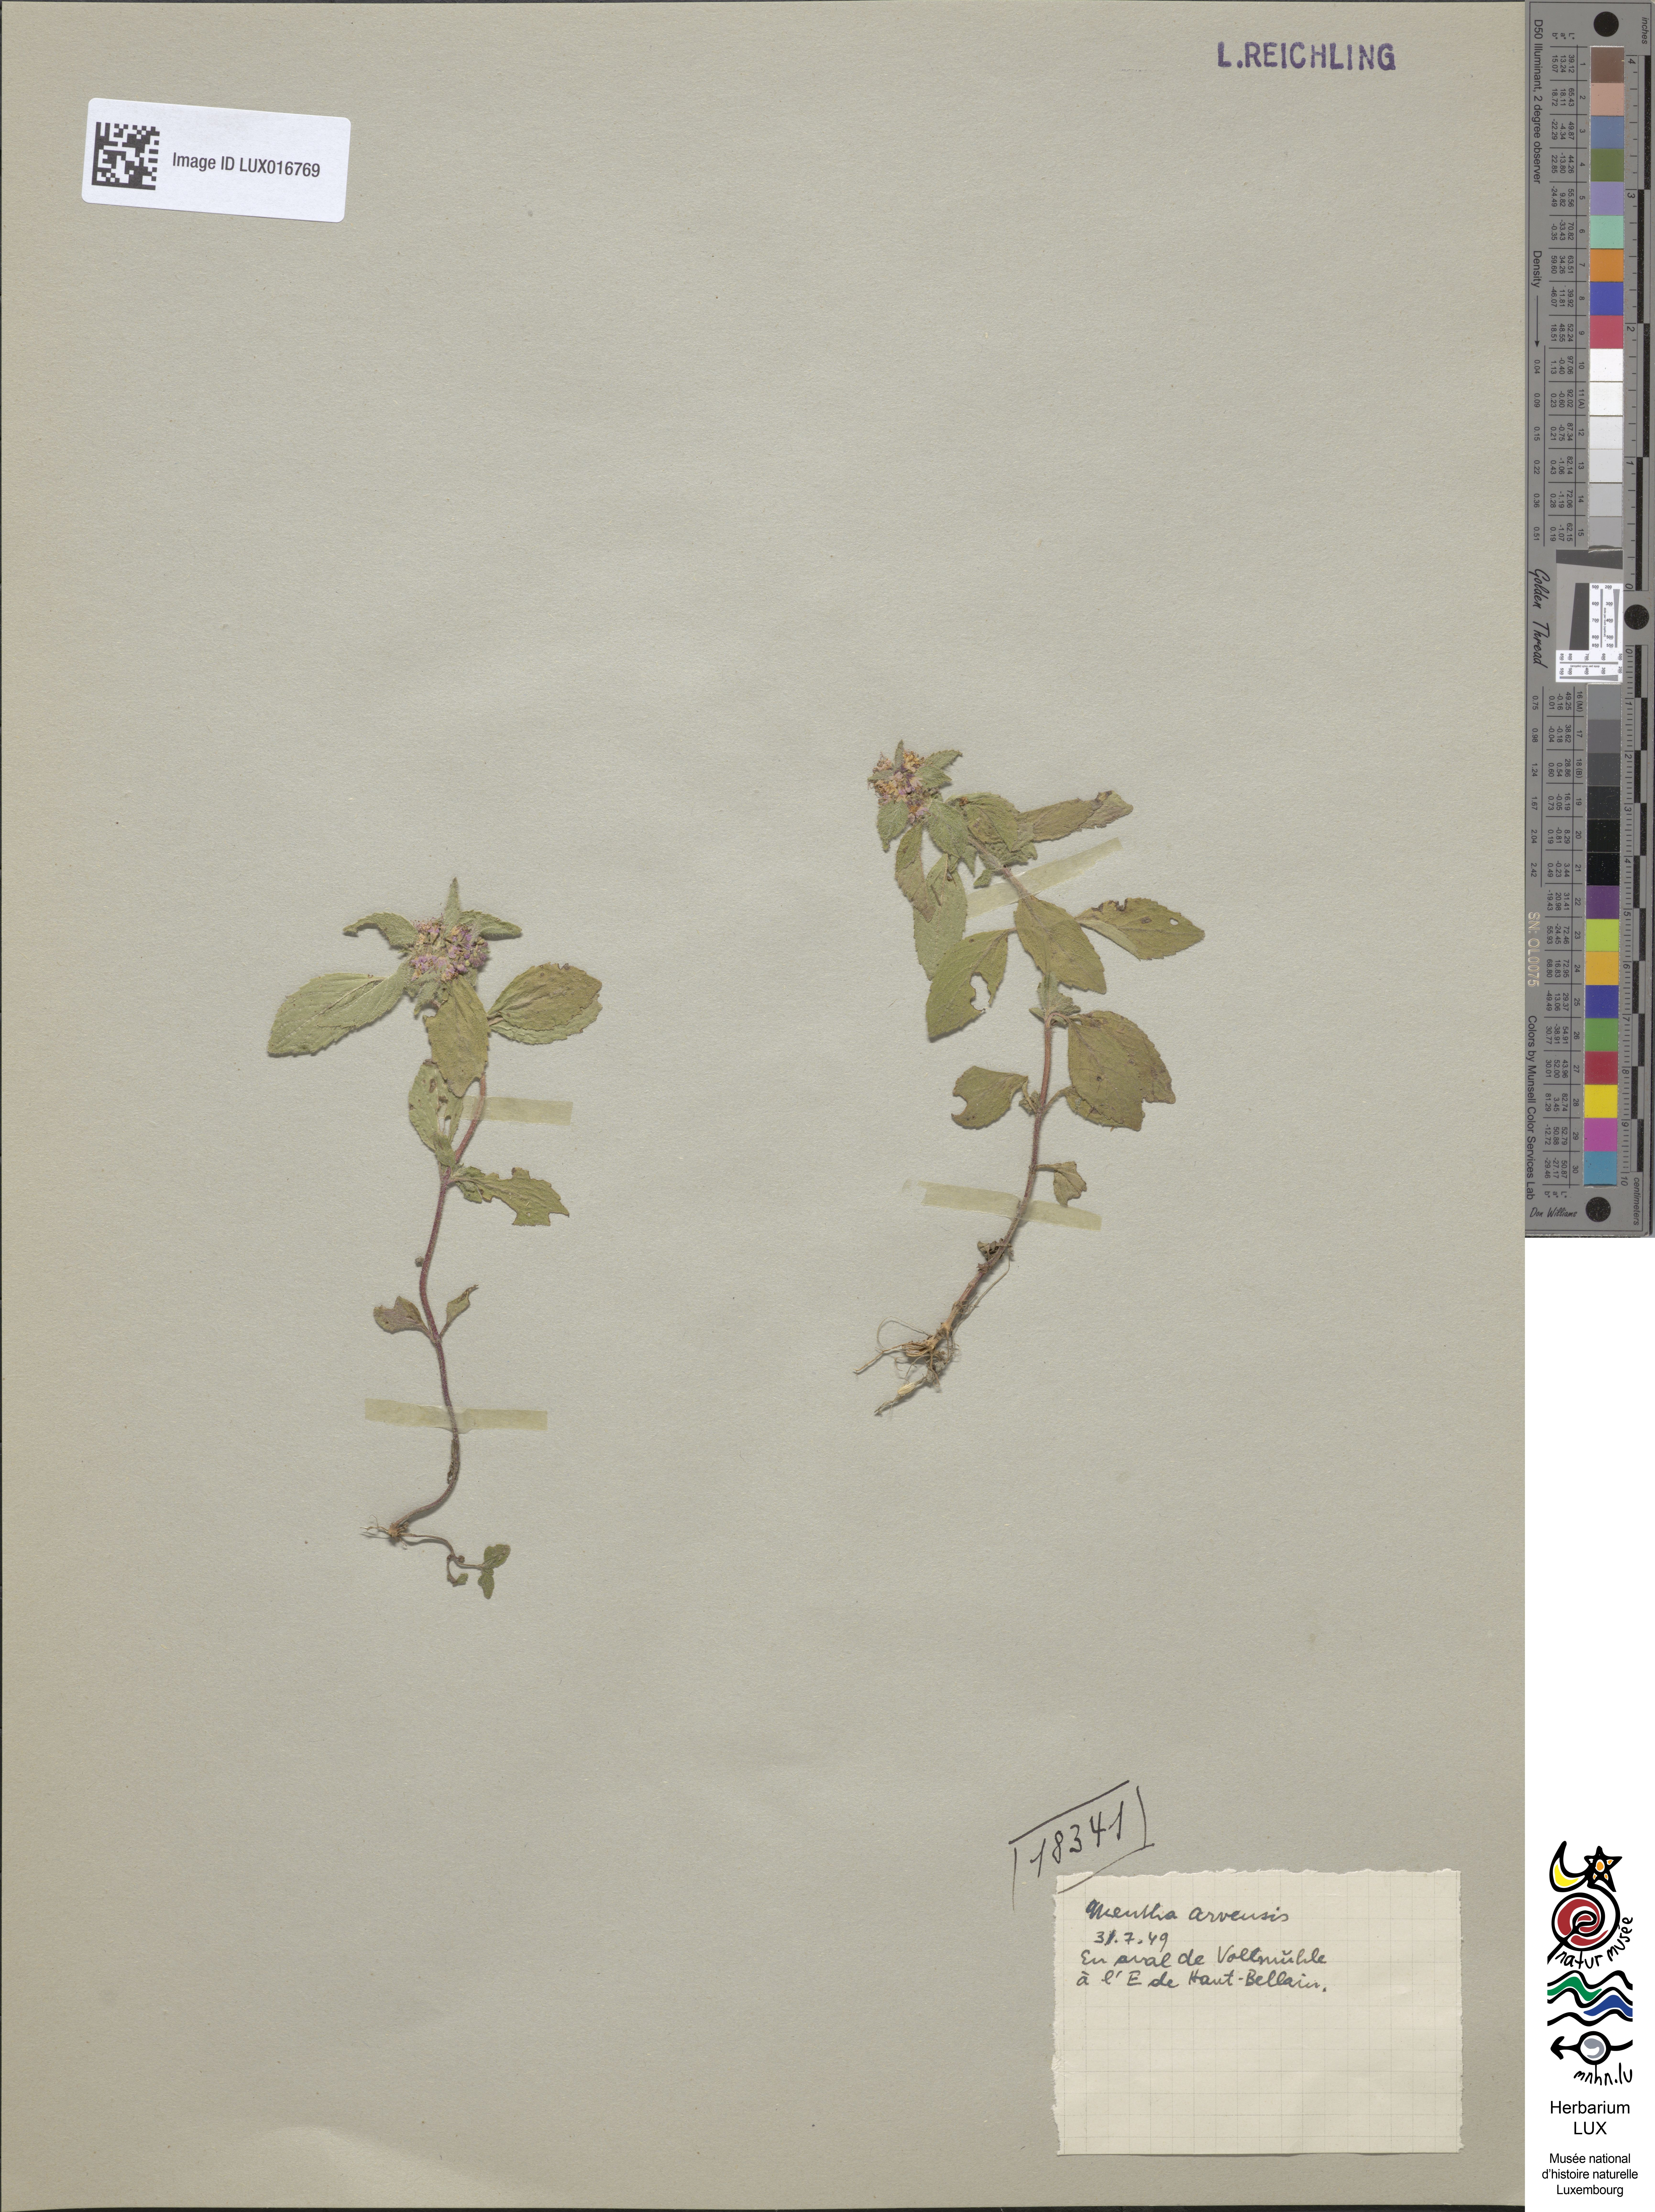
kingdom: Plantae
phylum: Tracheophyta
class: Magnoliopsida
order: Lamiales
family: Lamiaceae
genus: Mentha
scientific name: Mentha arvensis
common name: Corn mint
